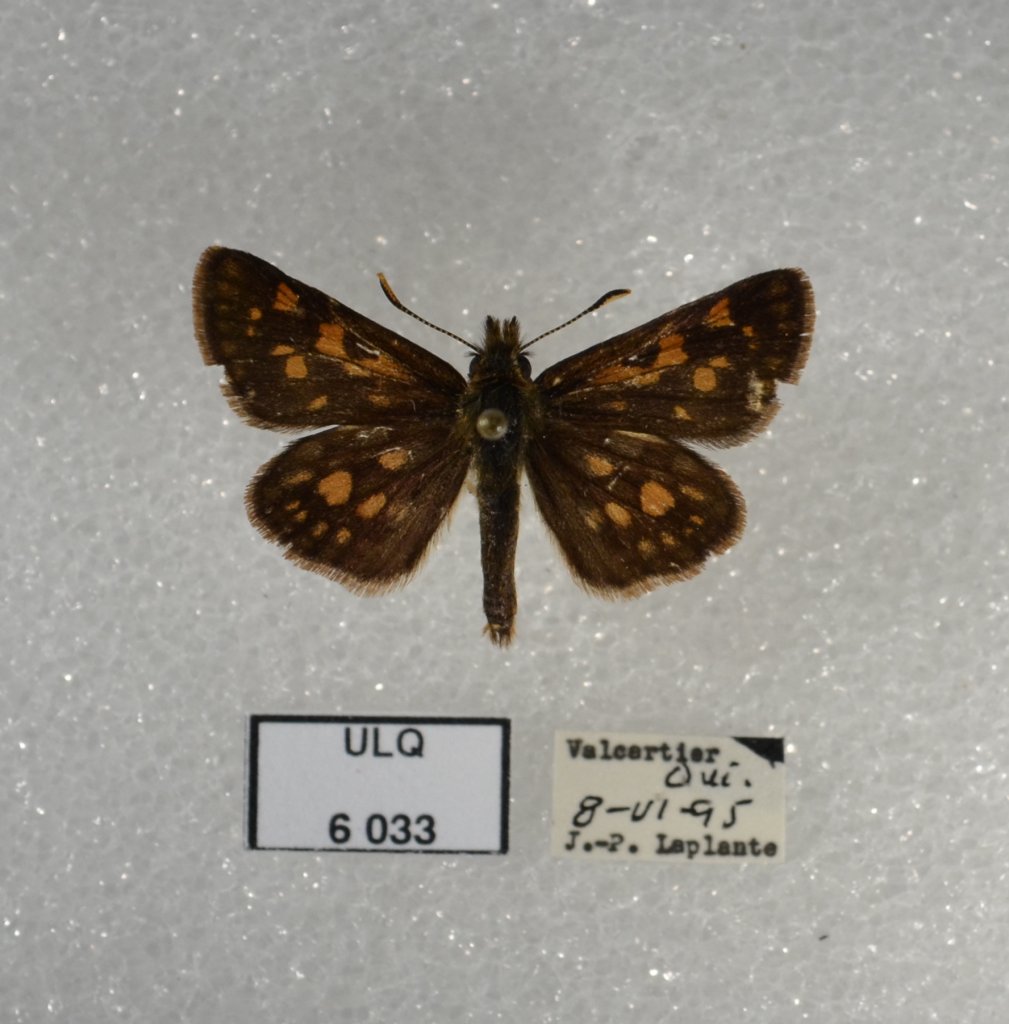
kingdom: Animalia
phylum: Arthropoda
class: Insecta
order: Lepidoptera
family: Hesperiidae
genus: Carterocephalus
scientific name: Carterocephalus palaemon
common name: Chequered Skipper
